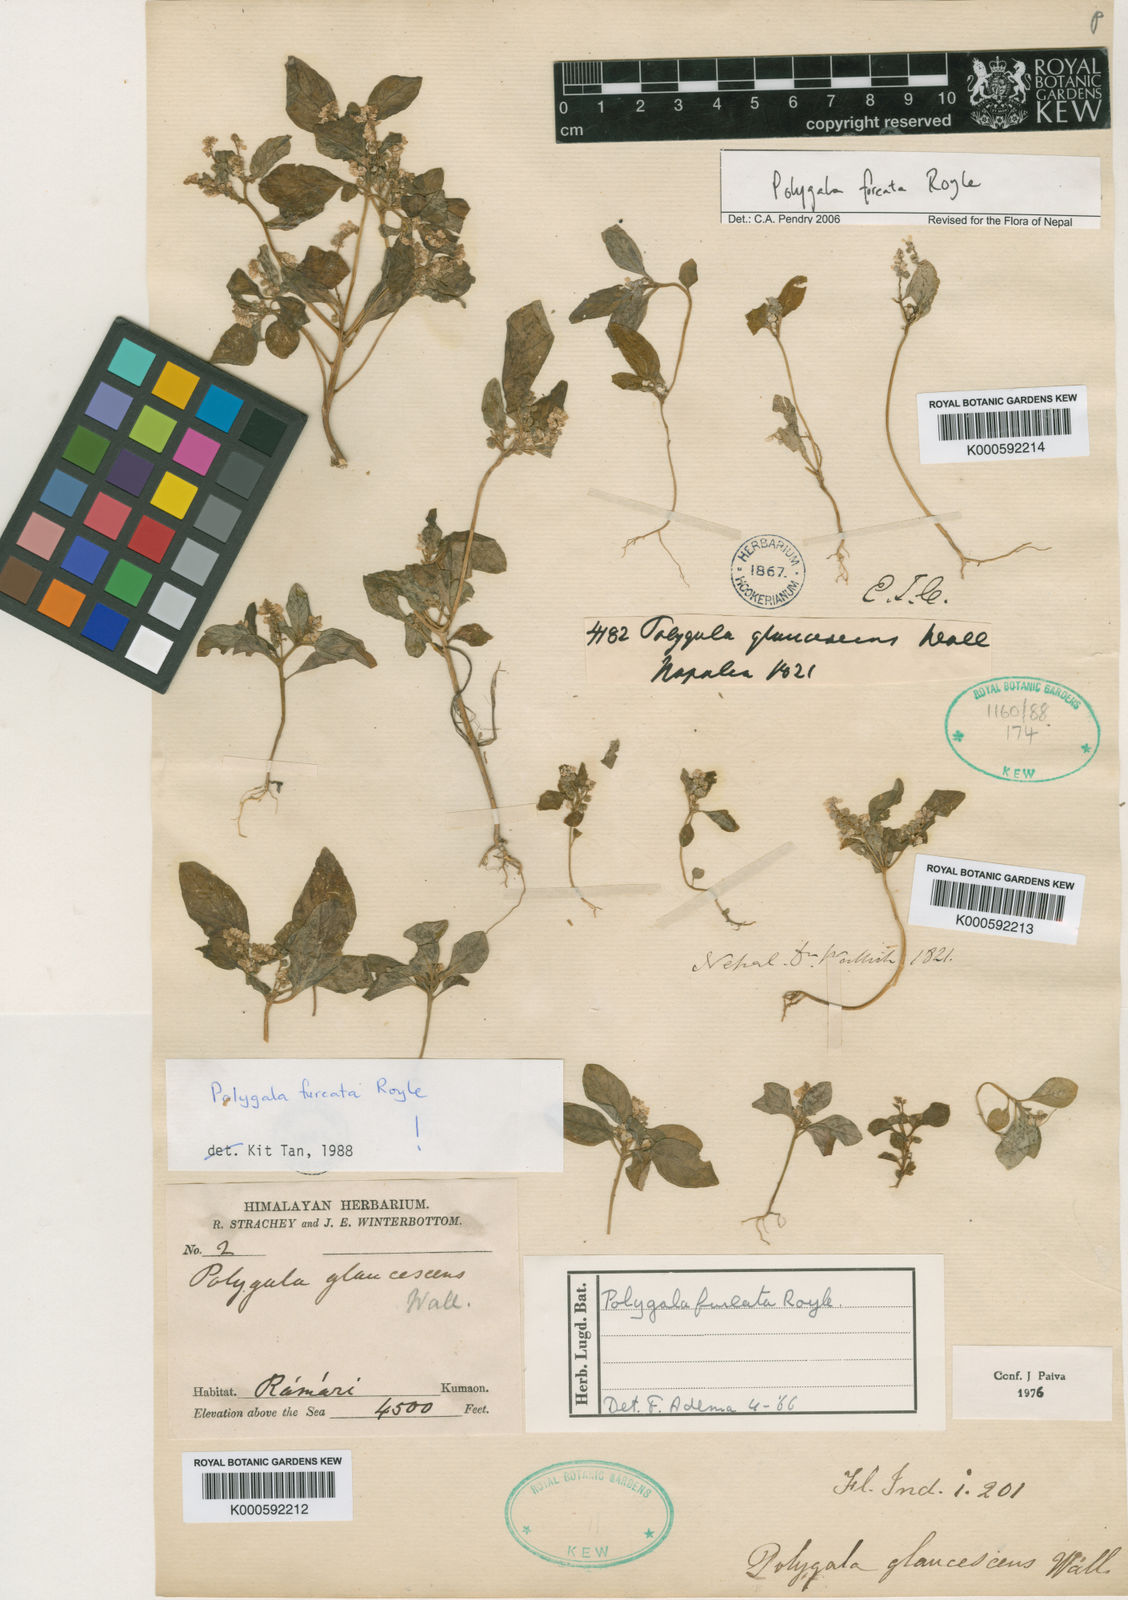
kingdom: Plantae
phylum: Tracheophyta
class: Magnoliopsida
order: Fabales
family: Polygalaceae
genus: Polygala
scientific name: Polygala furcata
